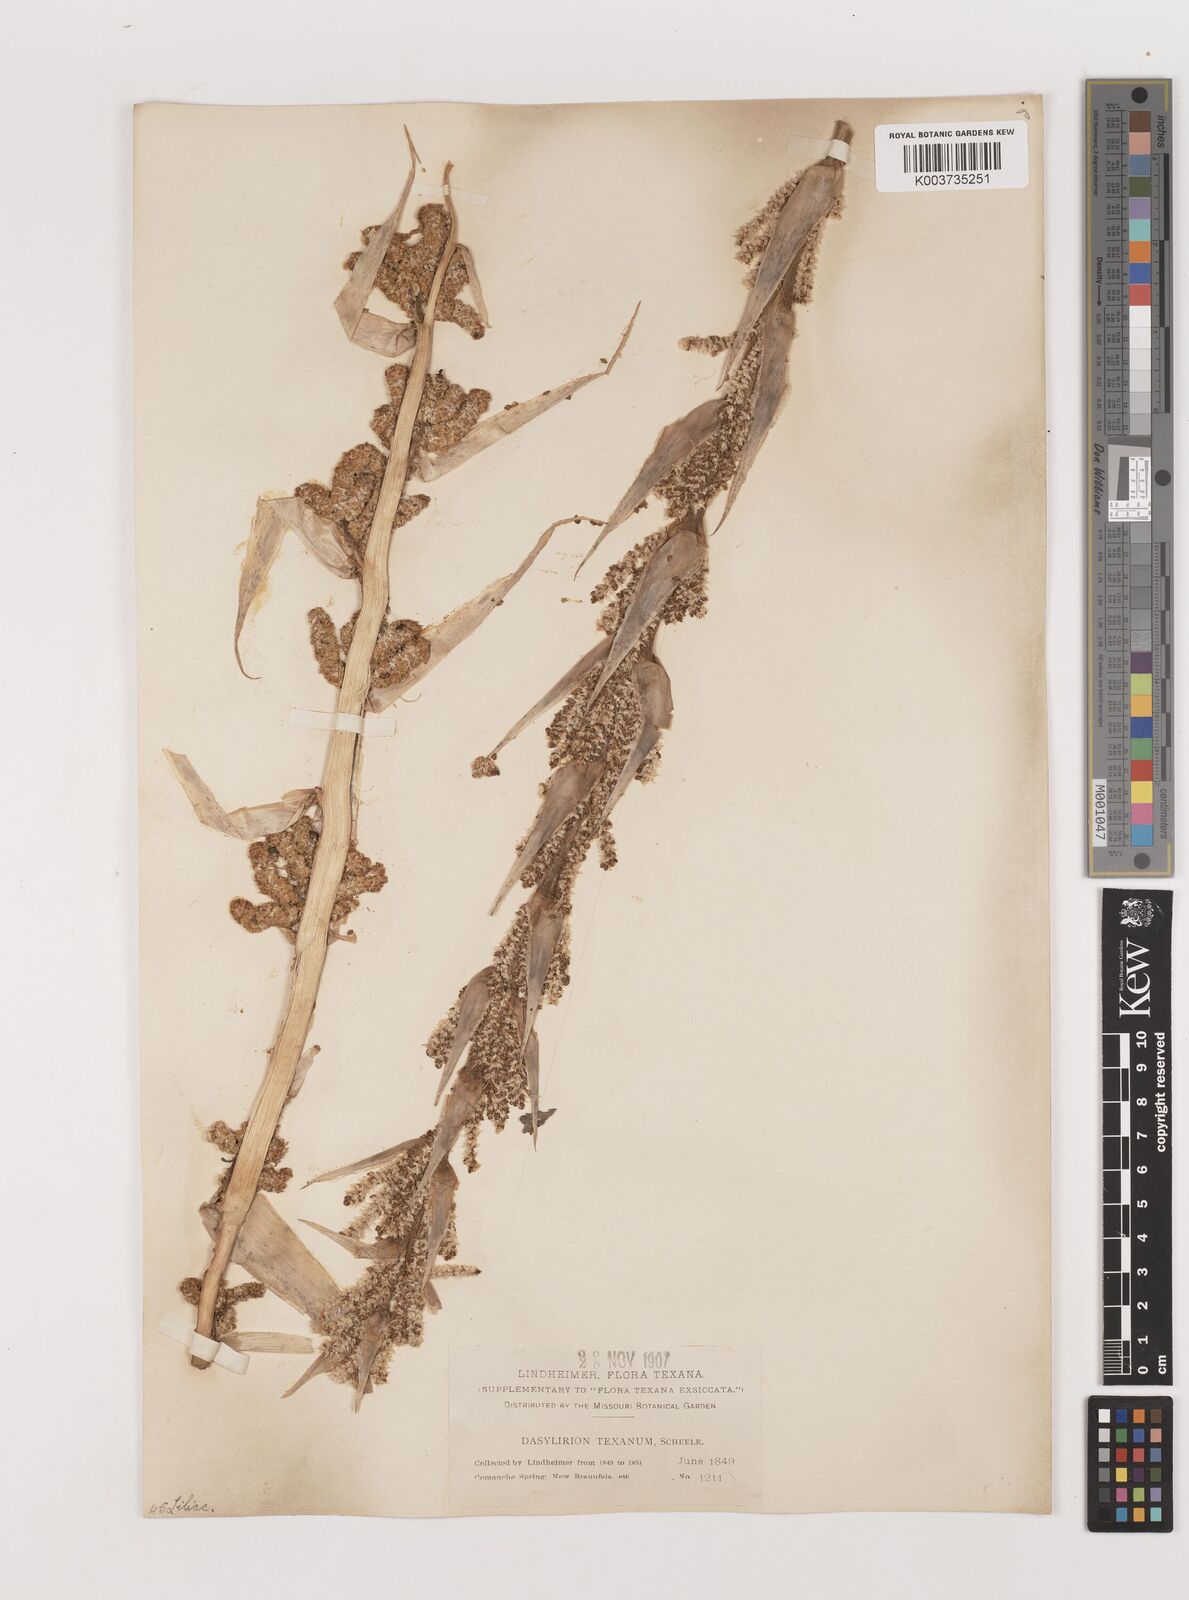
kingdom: Plantae
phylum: Tracheophyta
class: Liliopsida
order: Asparagales
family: Asparagaceae
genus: Dasylirion
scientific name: Dasylirion texanum
